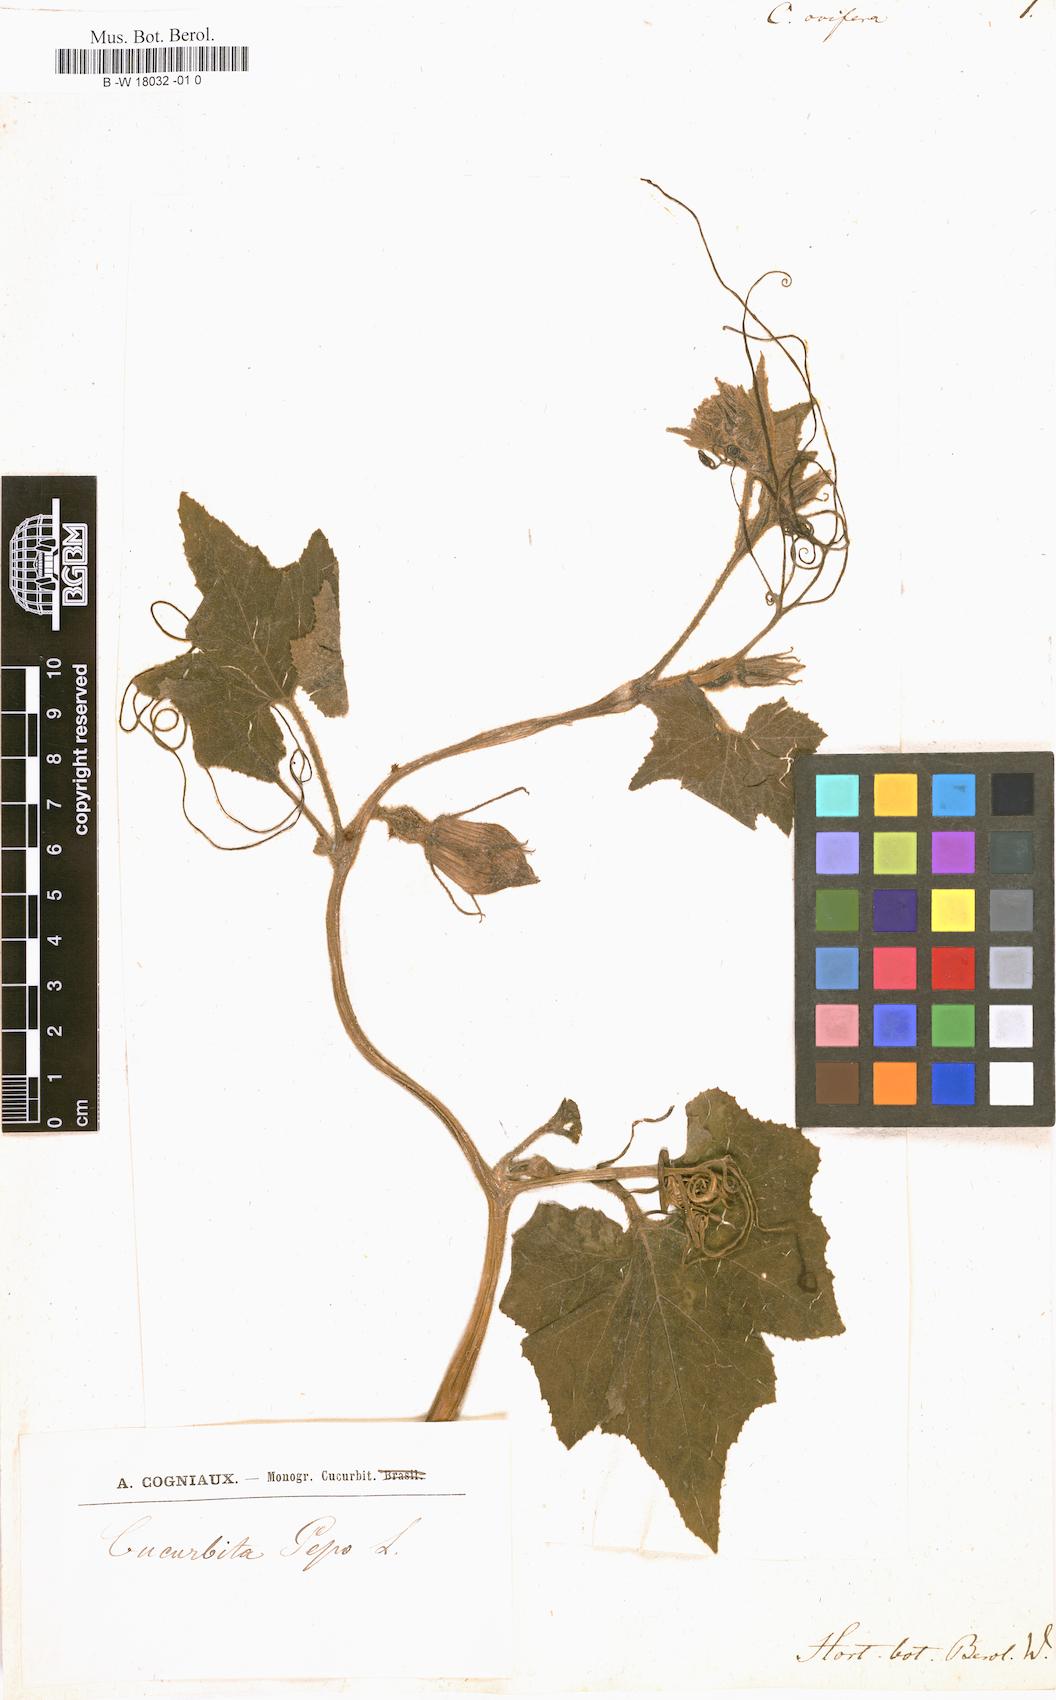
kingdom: Plantae
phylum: Tracheophyta
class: Magnoliopsida
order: Cucurbitales
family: Cucurbitaceae
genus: Cucurbita
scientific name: Cucurbita melopepo
